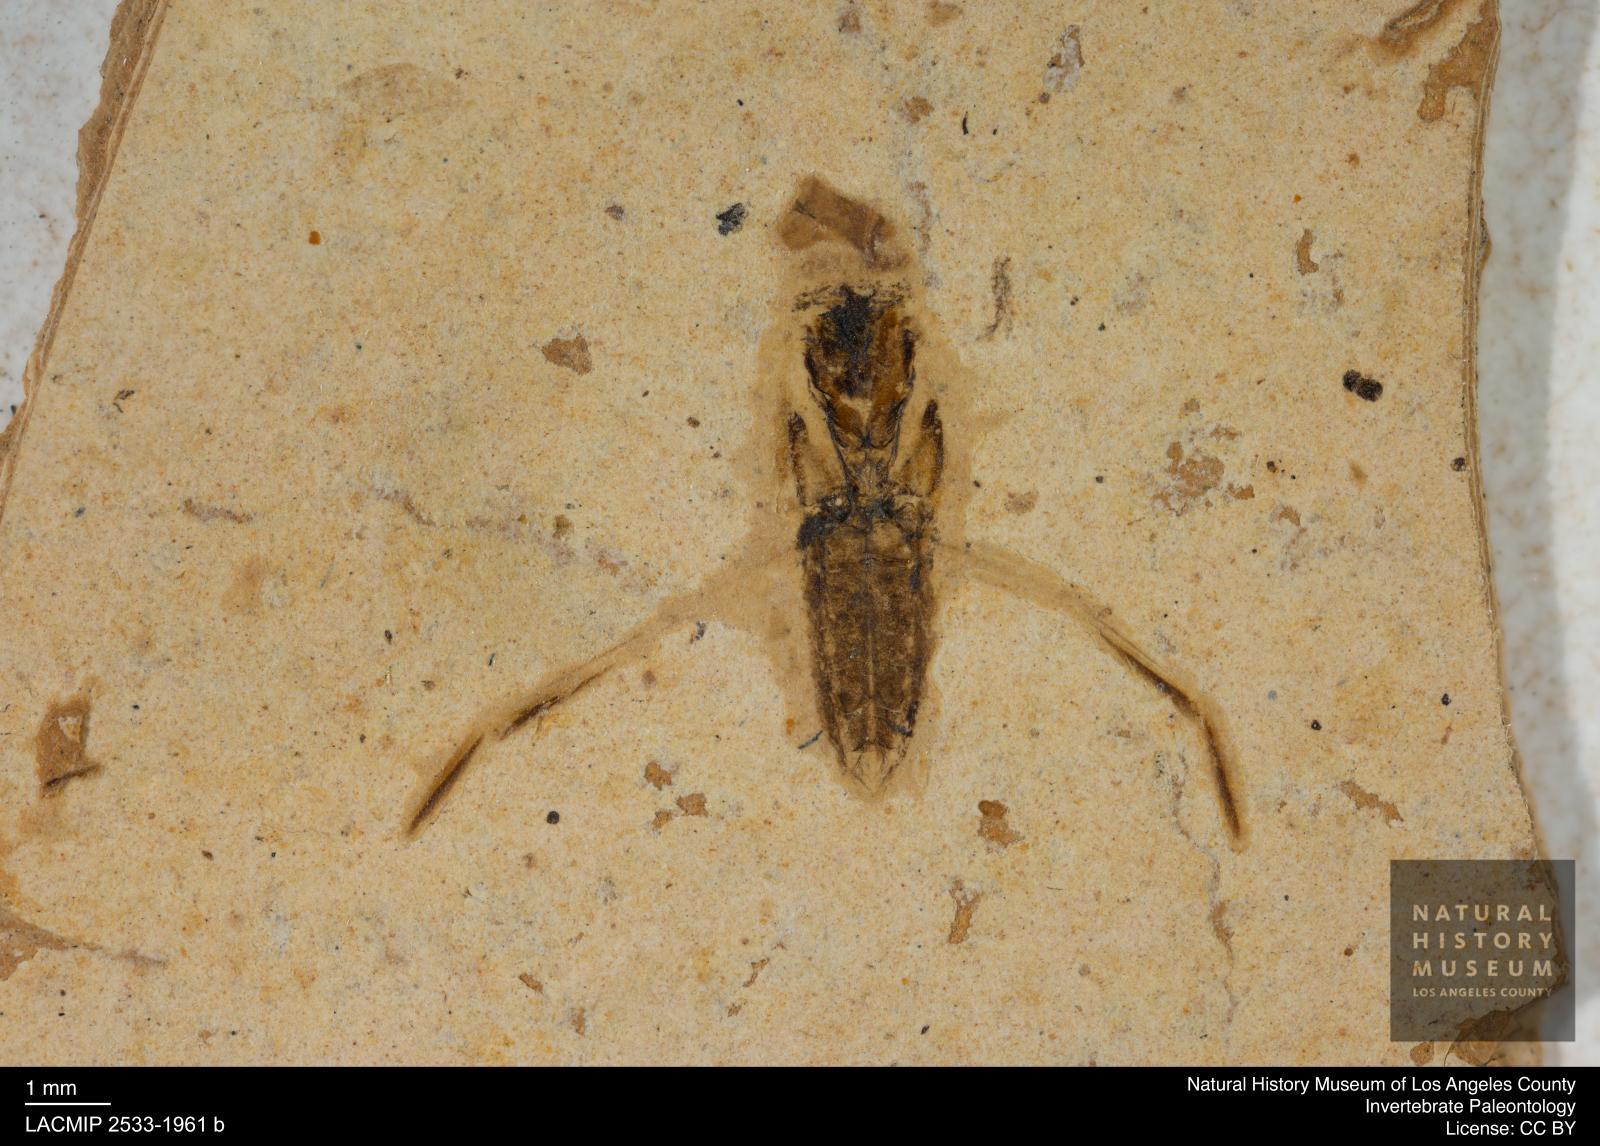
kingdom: Animalia
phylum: Arthropoda
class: Insecta
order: Hemiptera
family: Notonectidae
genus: Anisops
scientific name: Anisops Notonecta deichmuelleri
